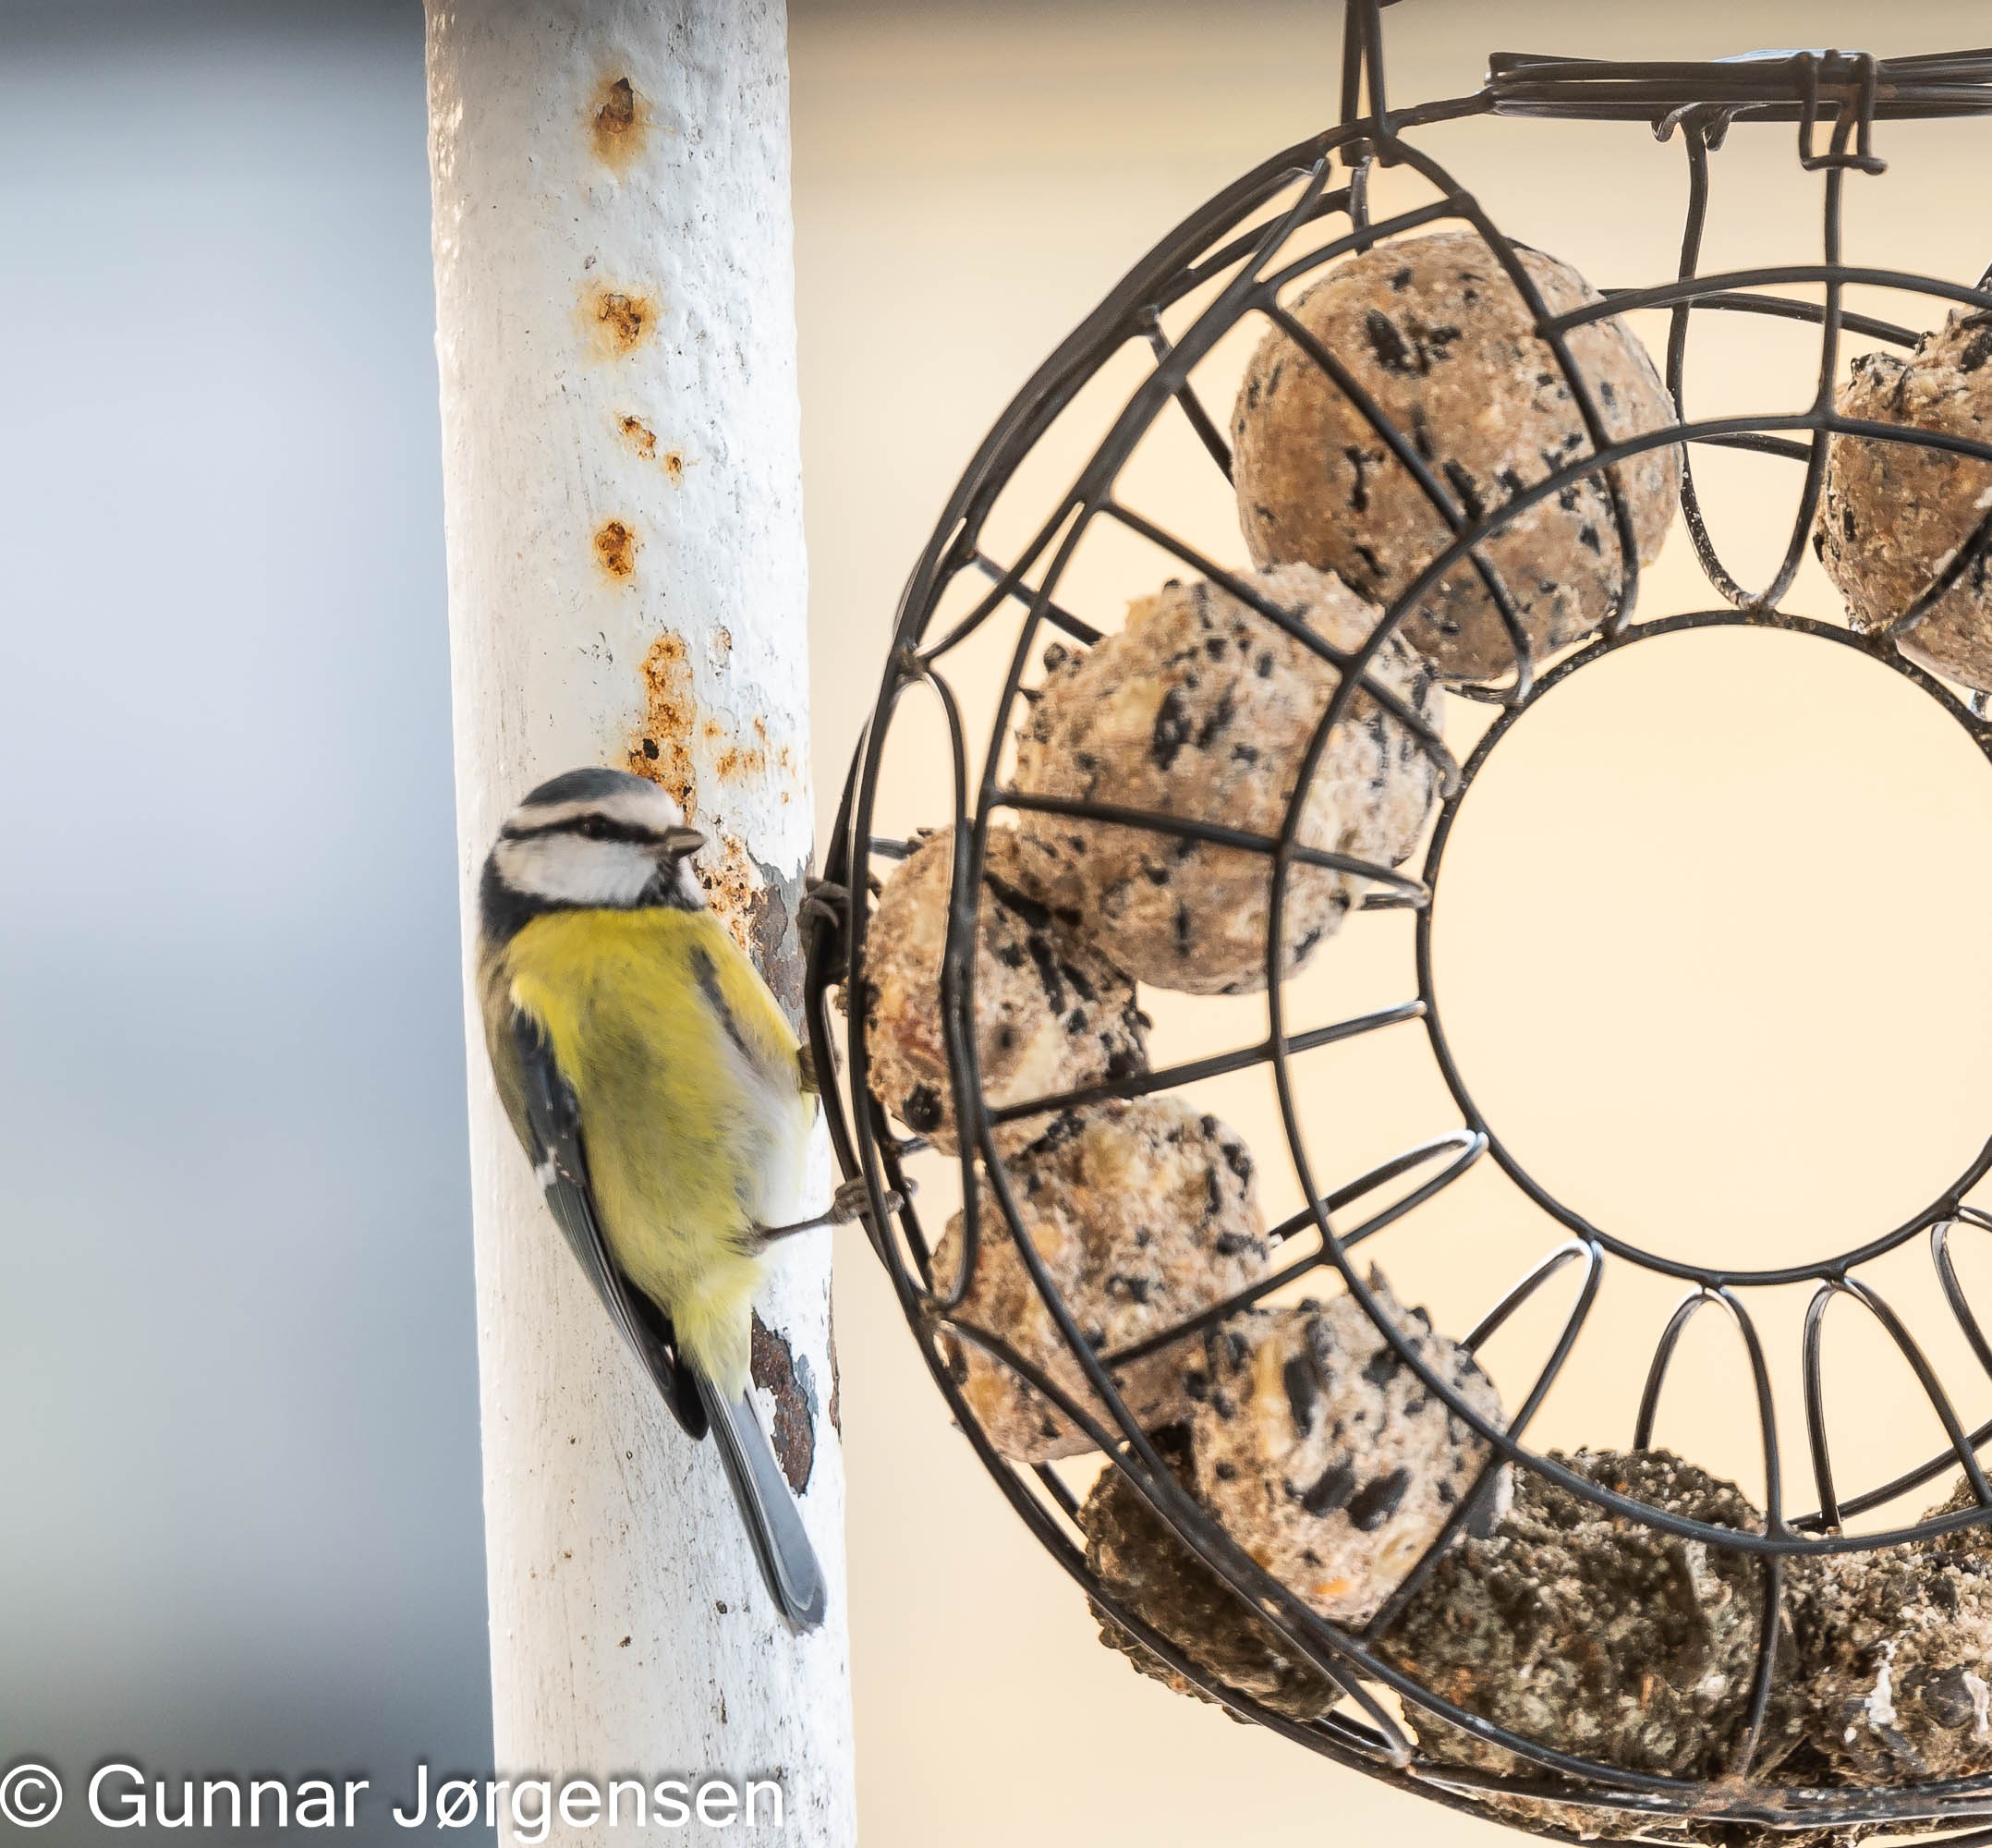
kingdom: Animalia
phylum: Chordata
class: Aves
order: Passeriformes
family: Paridae
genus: Cyanistes
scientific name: Cyanistes caeruleus
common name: Blåmejse
